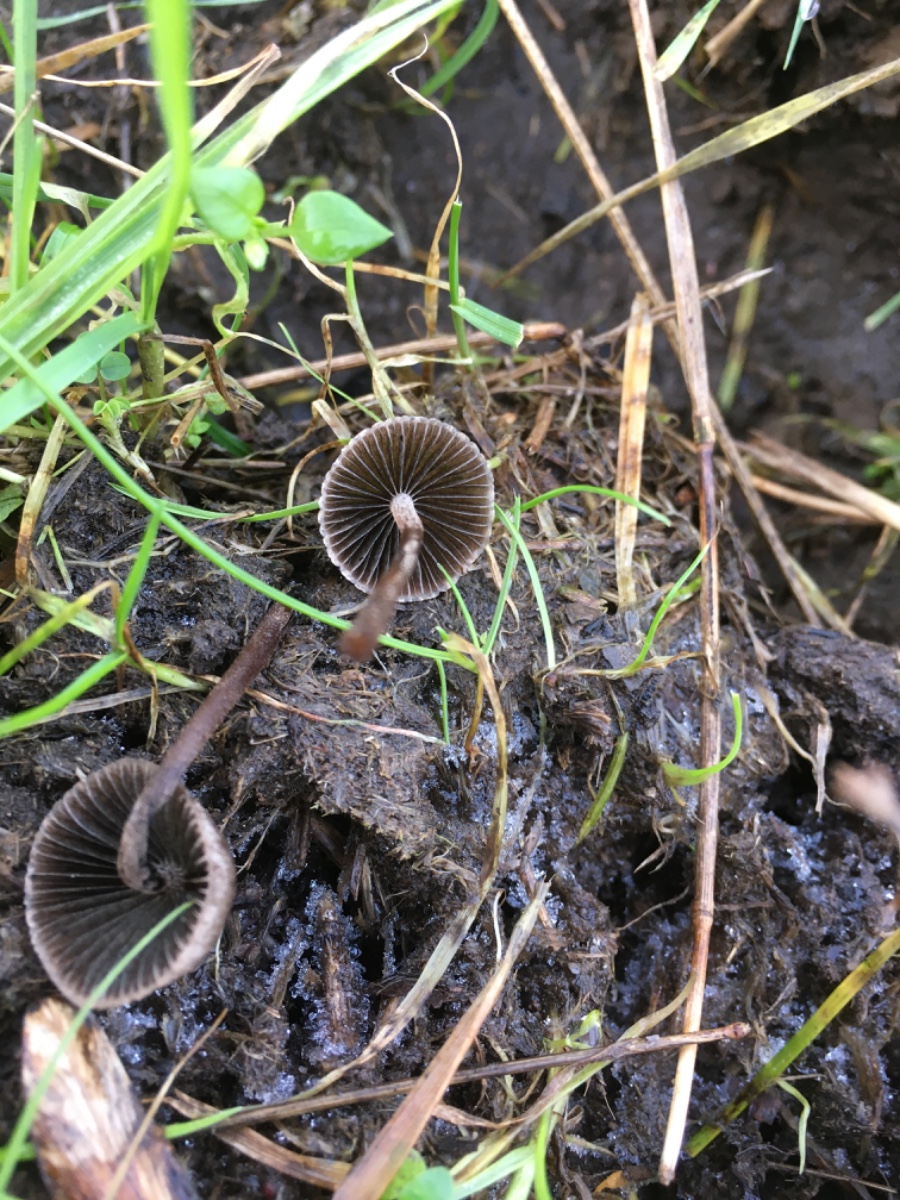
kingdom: Fungi
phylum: Basidiomycota
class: Agaricomycetes
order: Agaricales
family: Bolbitiaceae
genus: Panaeolus
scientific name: Panaeolus
